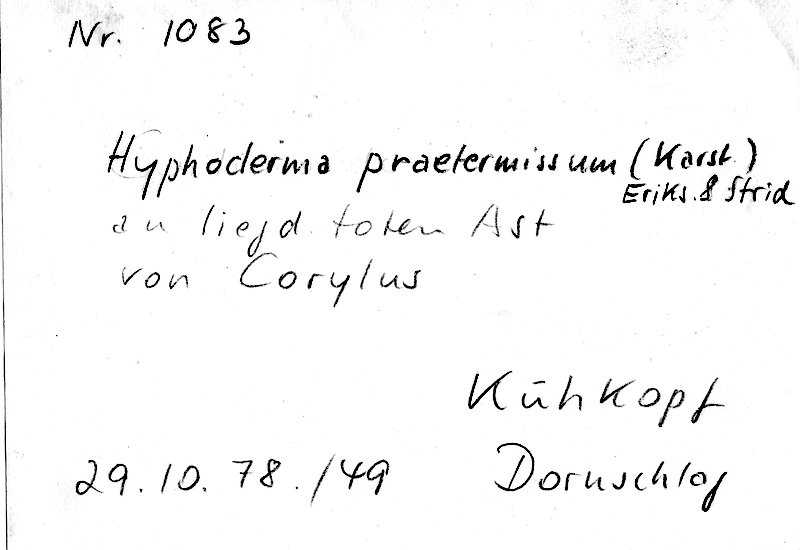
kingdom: Fungi
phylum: Basidiomycota
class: Agaricomycetes
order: Hymenochaetales
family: Rickenellaceae
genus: Peniophorella
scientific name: Peniophorella praetermissa
